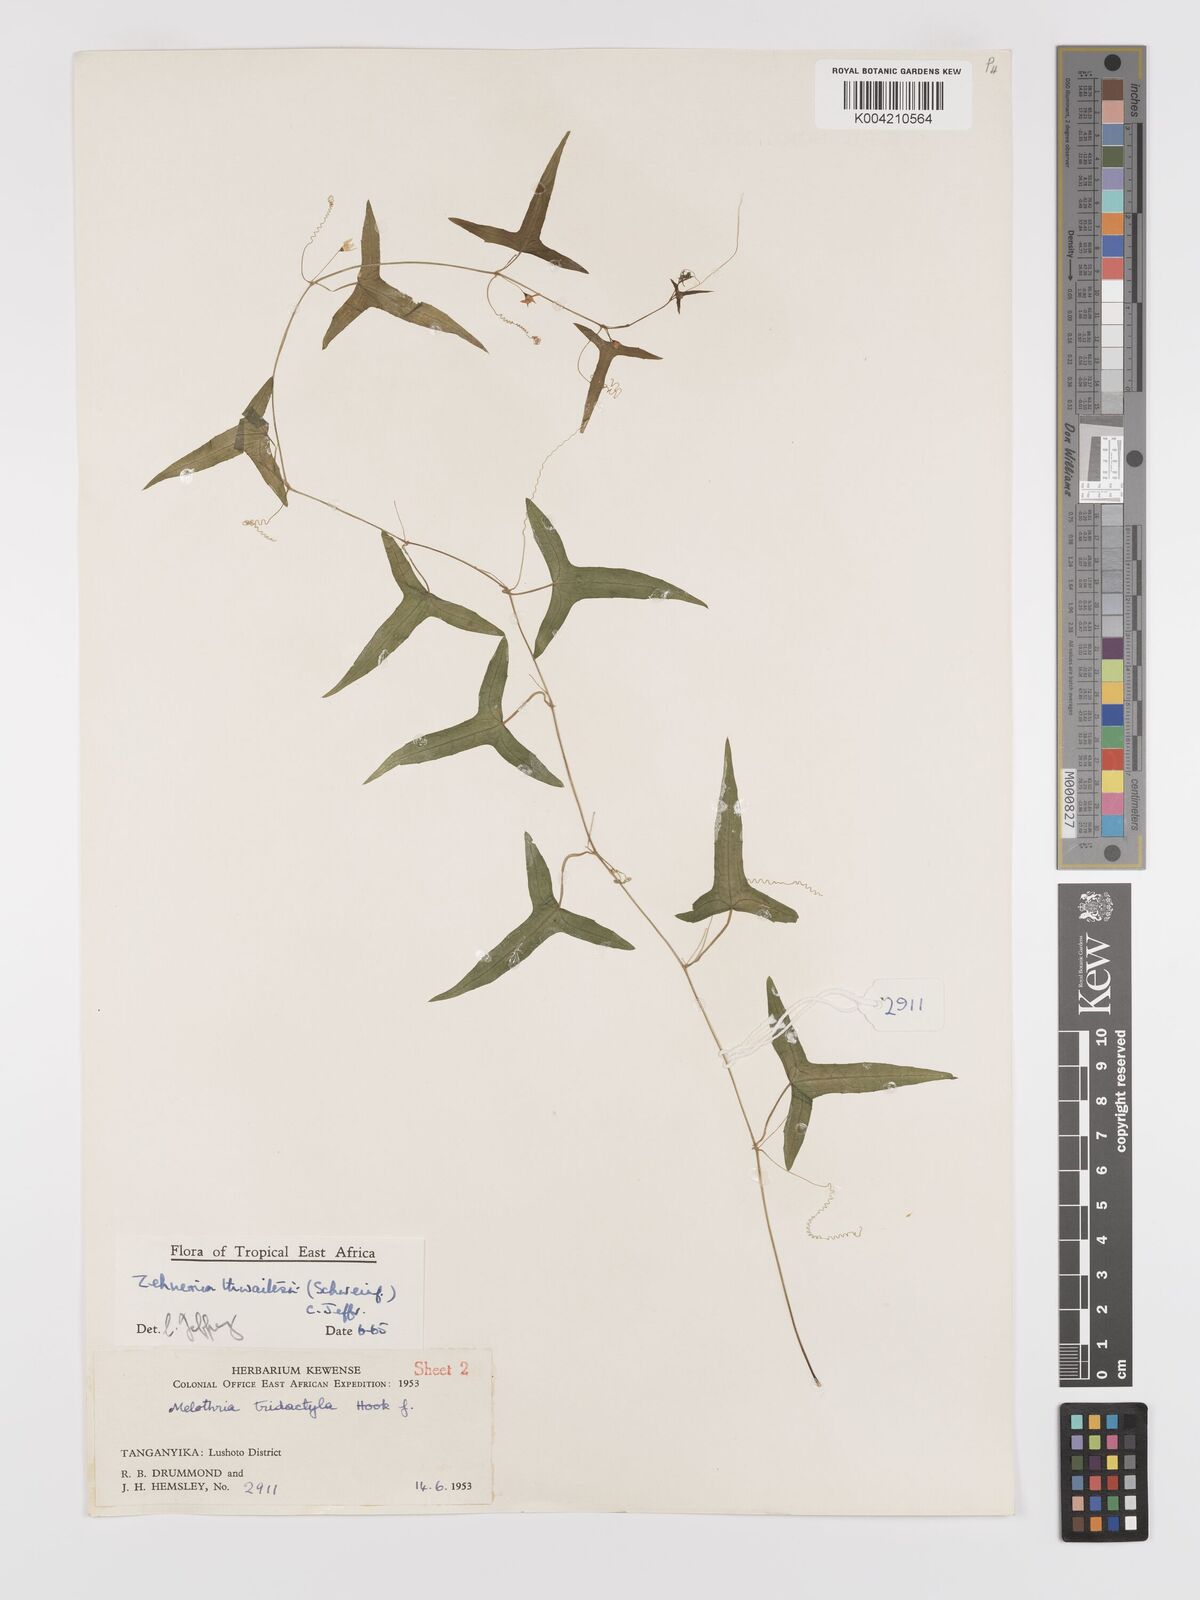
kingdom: Plantae
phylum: Tracheophyta
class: Magnoliopsida
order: Cucurbitales
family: Cucurbitaceae
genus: Zehneria
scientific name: Zehneria thwaitesii
